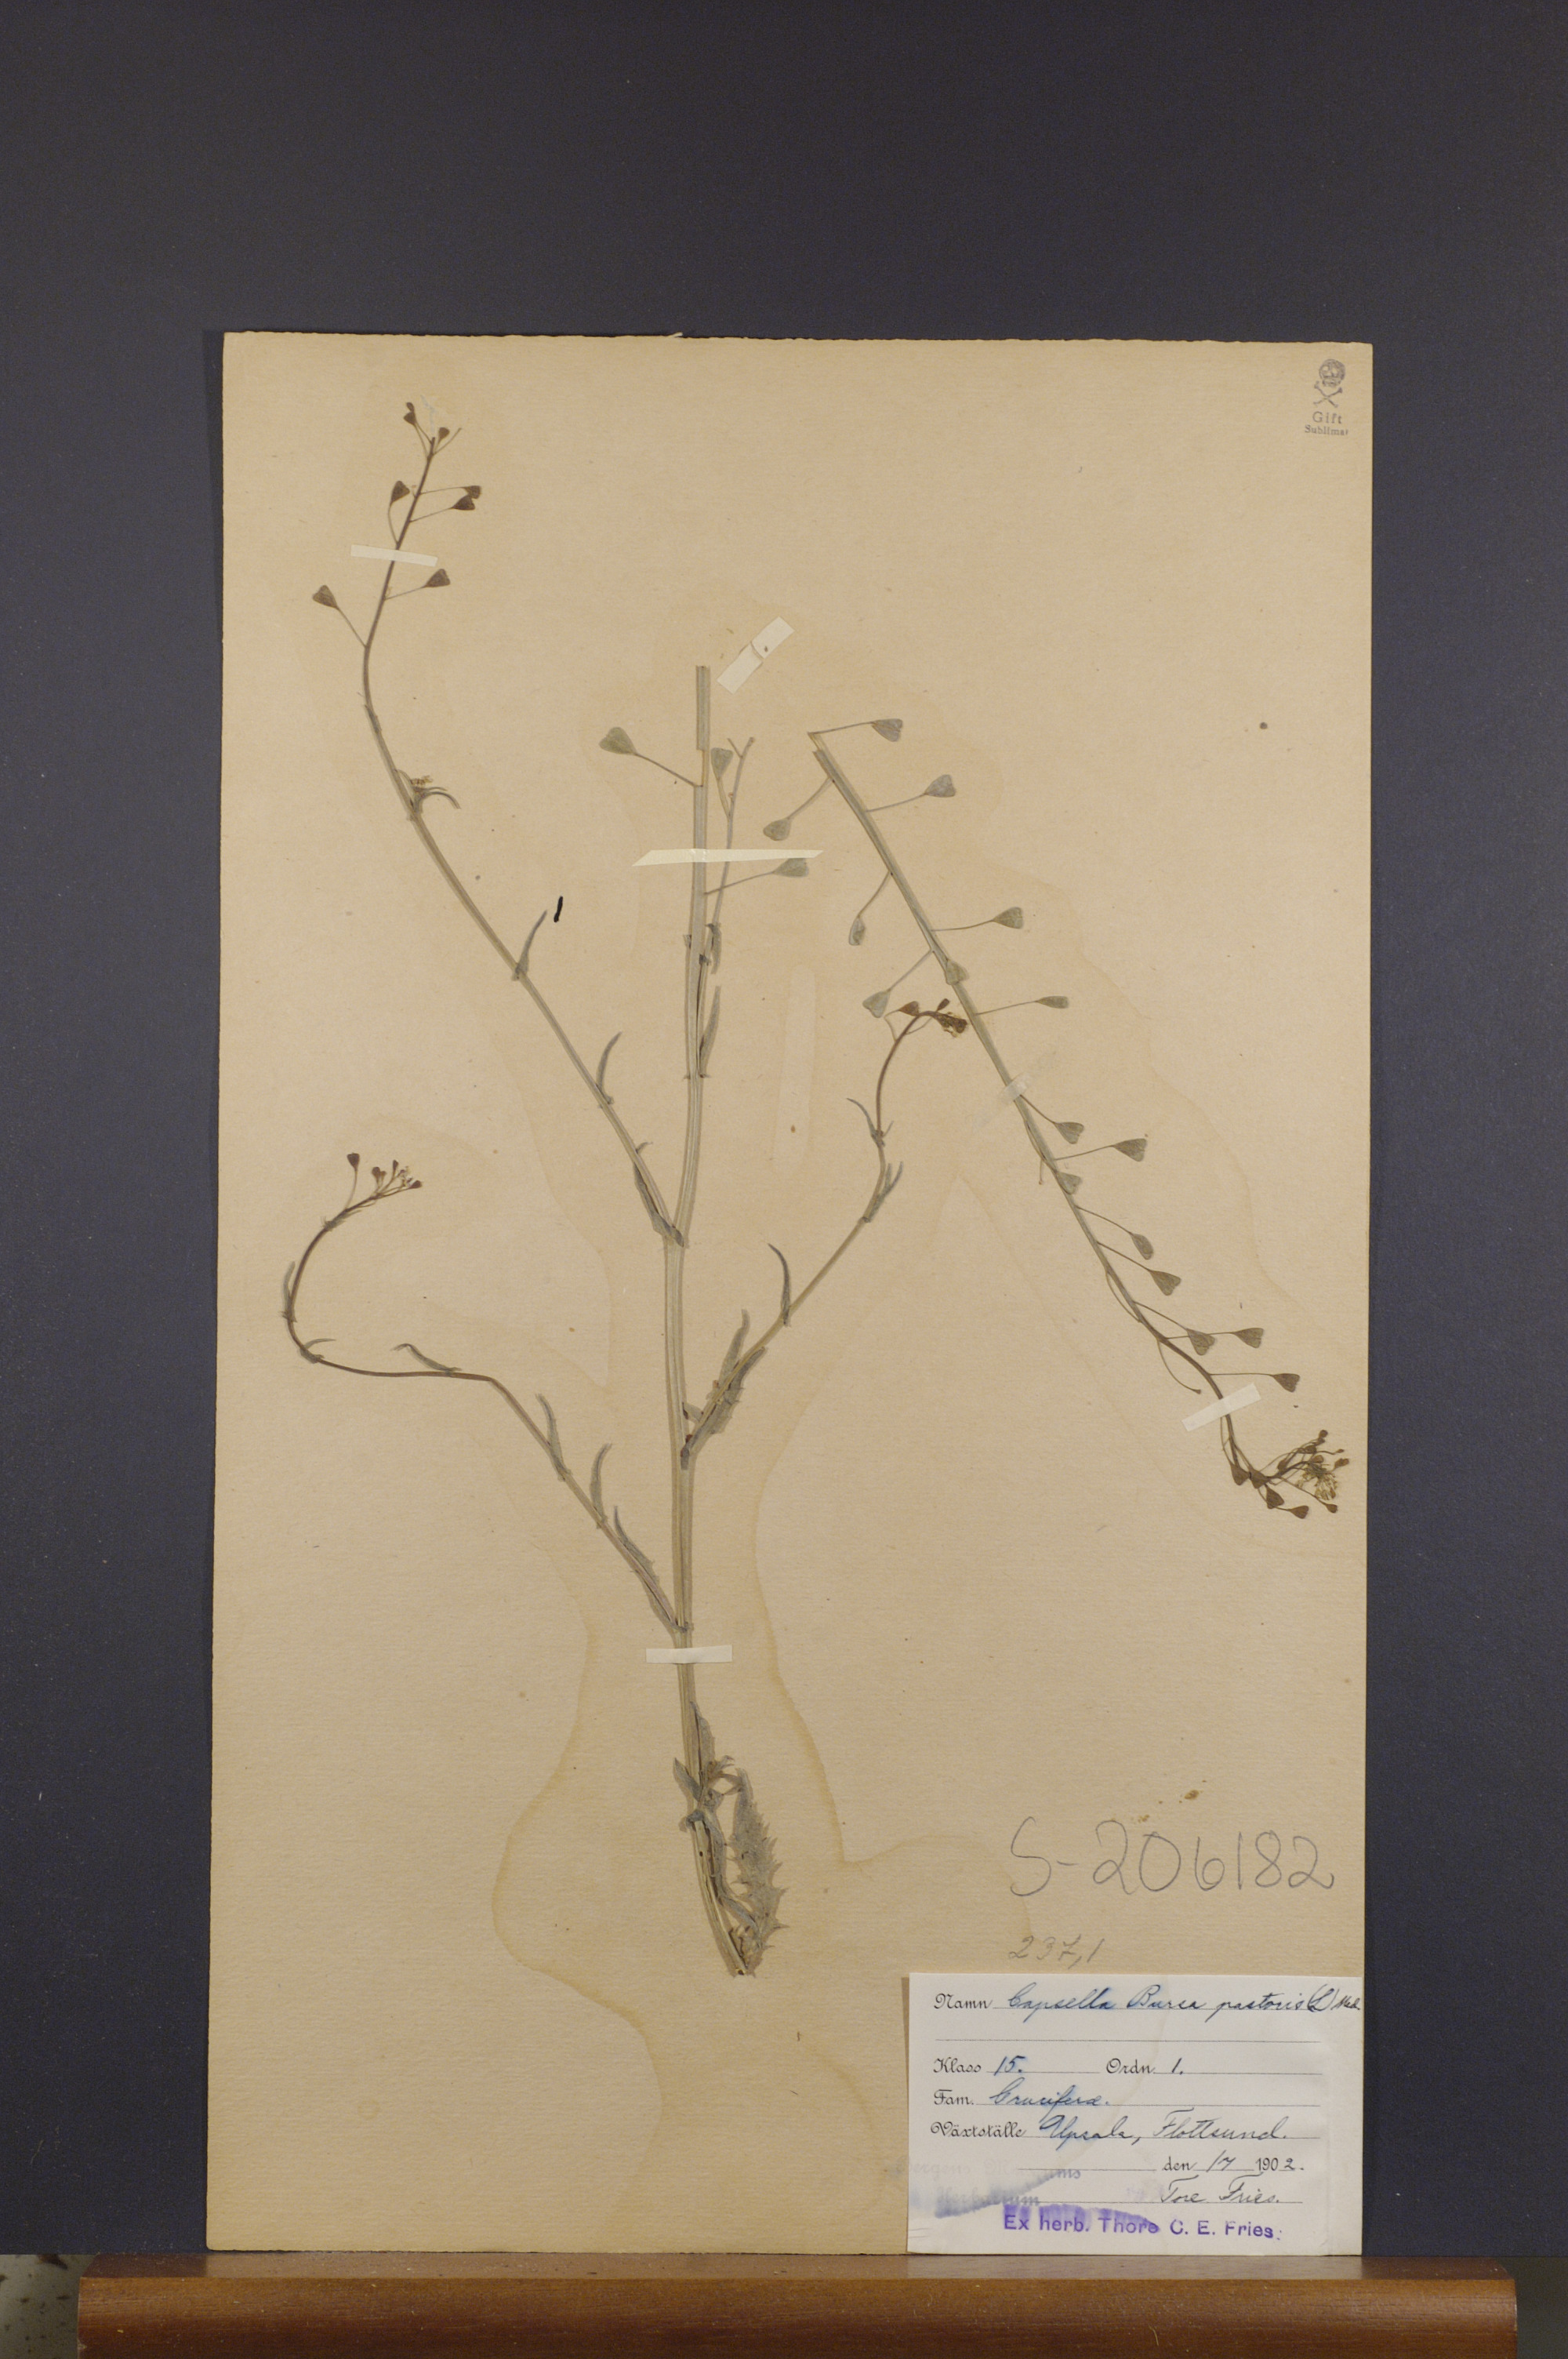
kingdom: Plantae
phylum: Tracheophyta
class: Magnoliopsida
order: Brassicales
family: Brassicaceae
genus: Capsella
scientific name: Capsella bursa-pastoris
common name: Shepherd's purse
